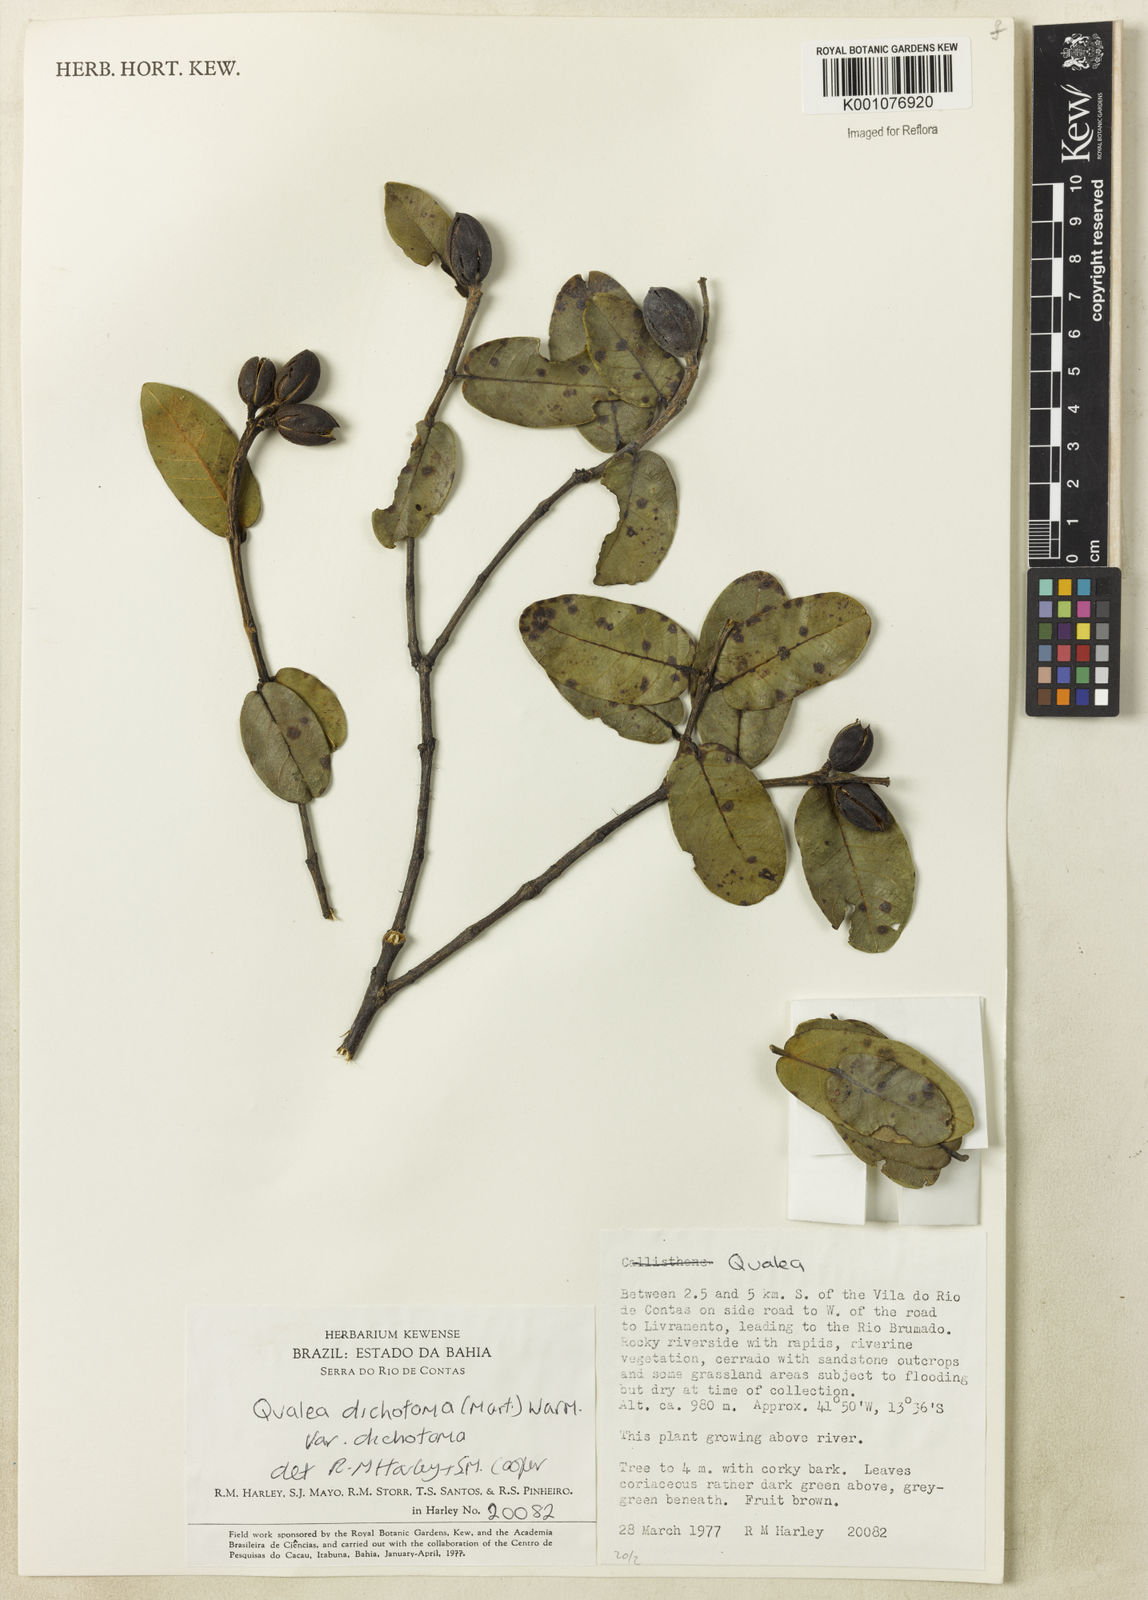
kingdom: Plantae
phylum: Tracheophyta
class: Magnoliopsida
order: Myrtales
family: Vochysiaceae
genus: Qualea
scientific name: Qualea
